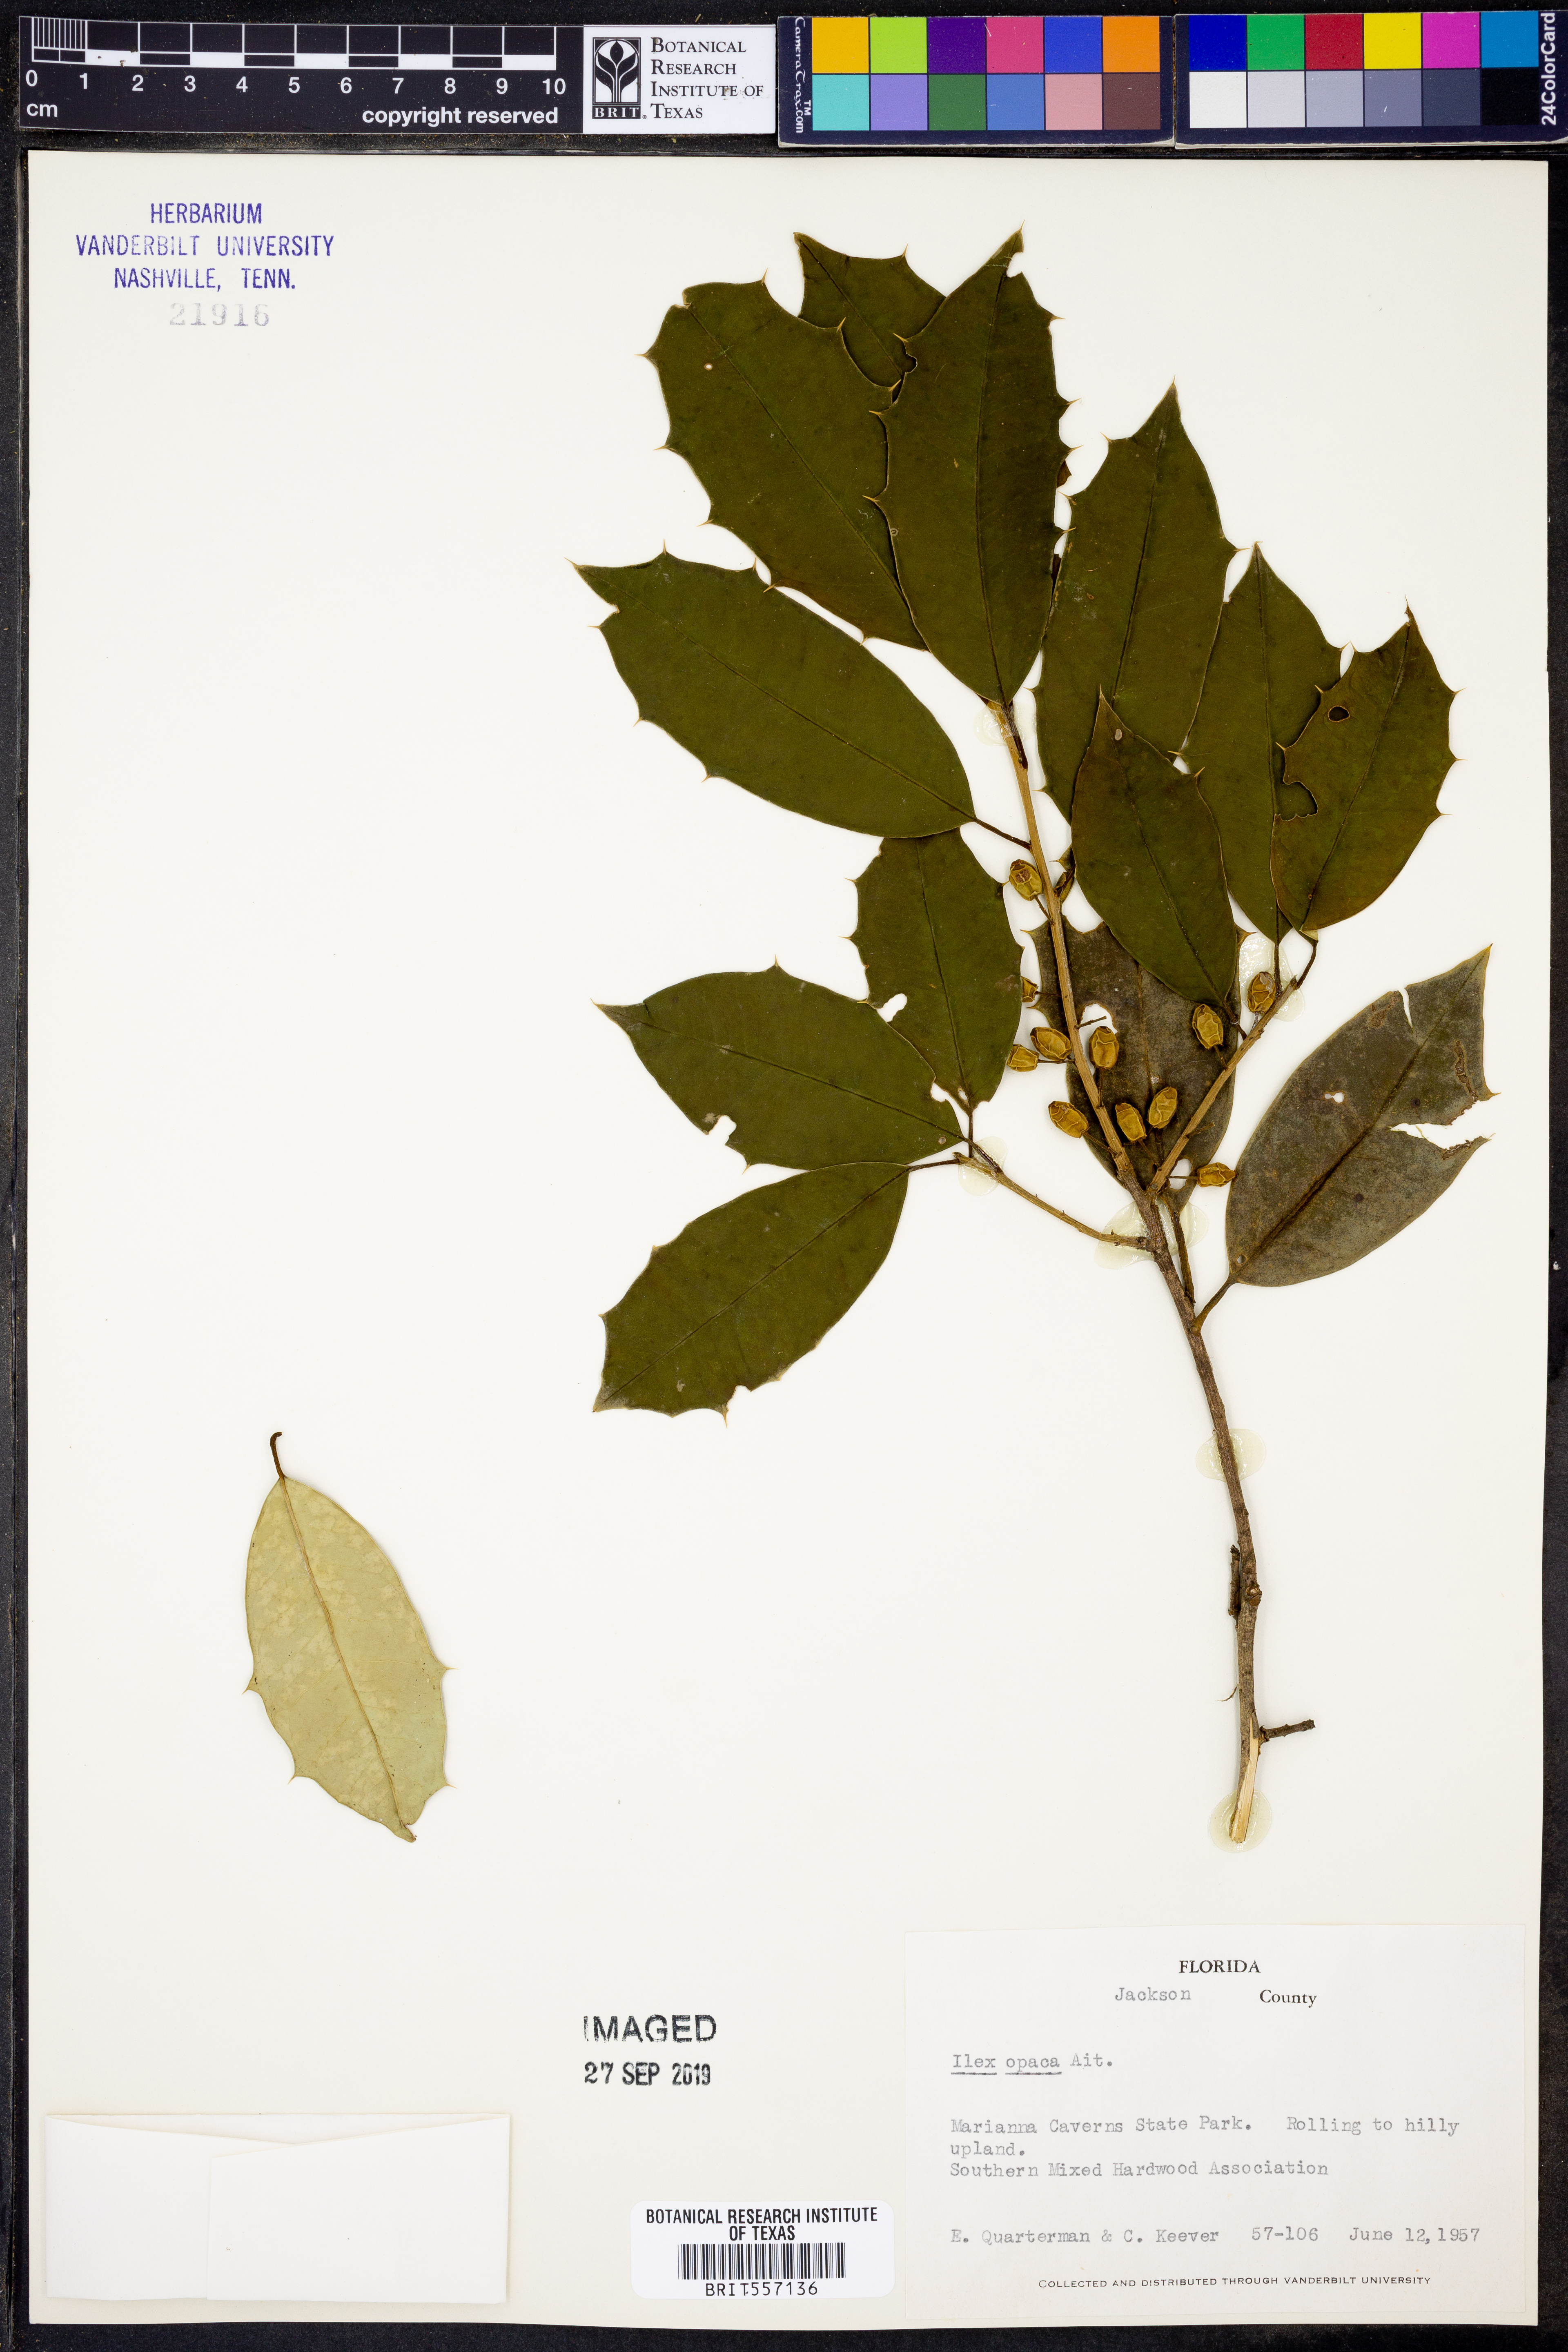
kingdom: Plantae
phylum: Tracheophyta
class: Magnoliopsida
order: Aquifoliales
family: Aquifoliaceae
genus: Ilex
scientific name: Ilex opaca
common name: American holly
